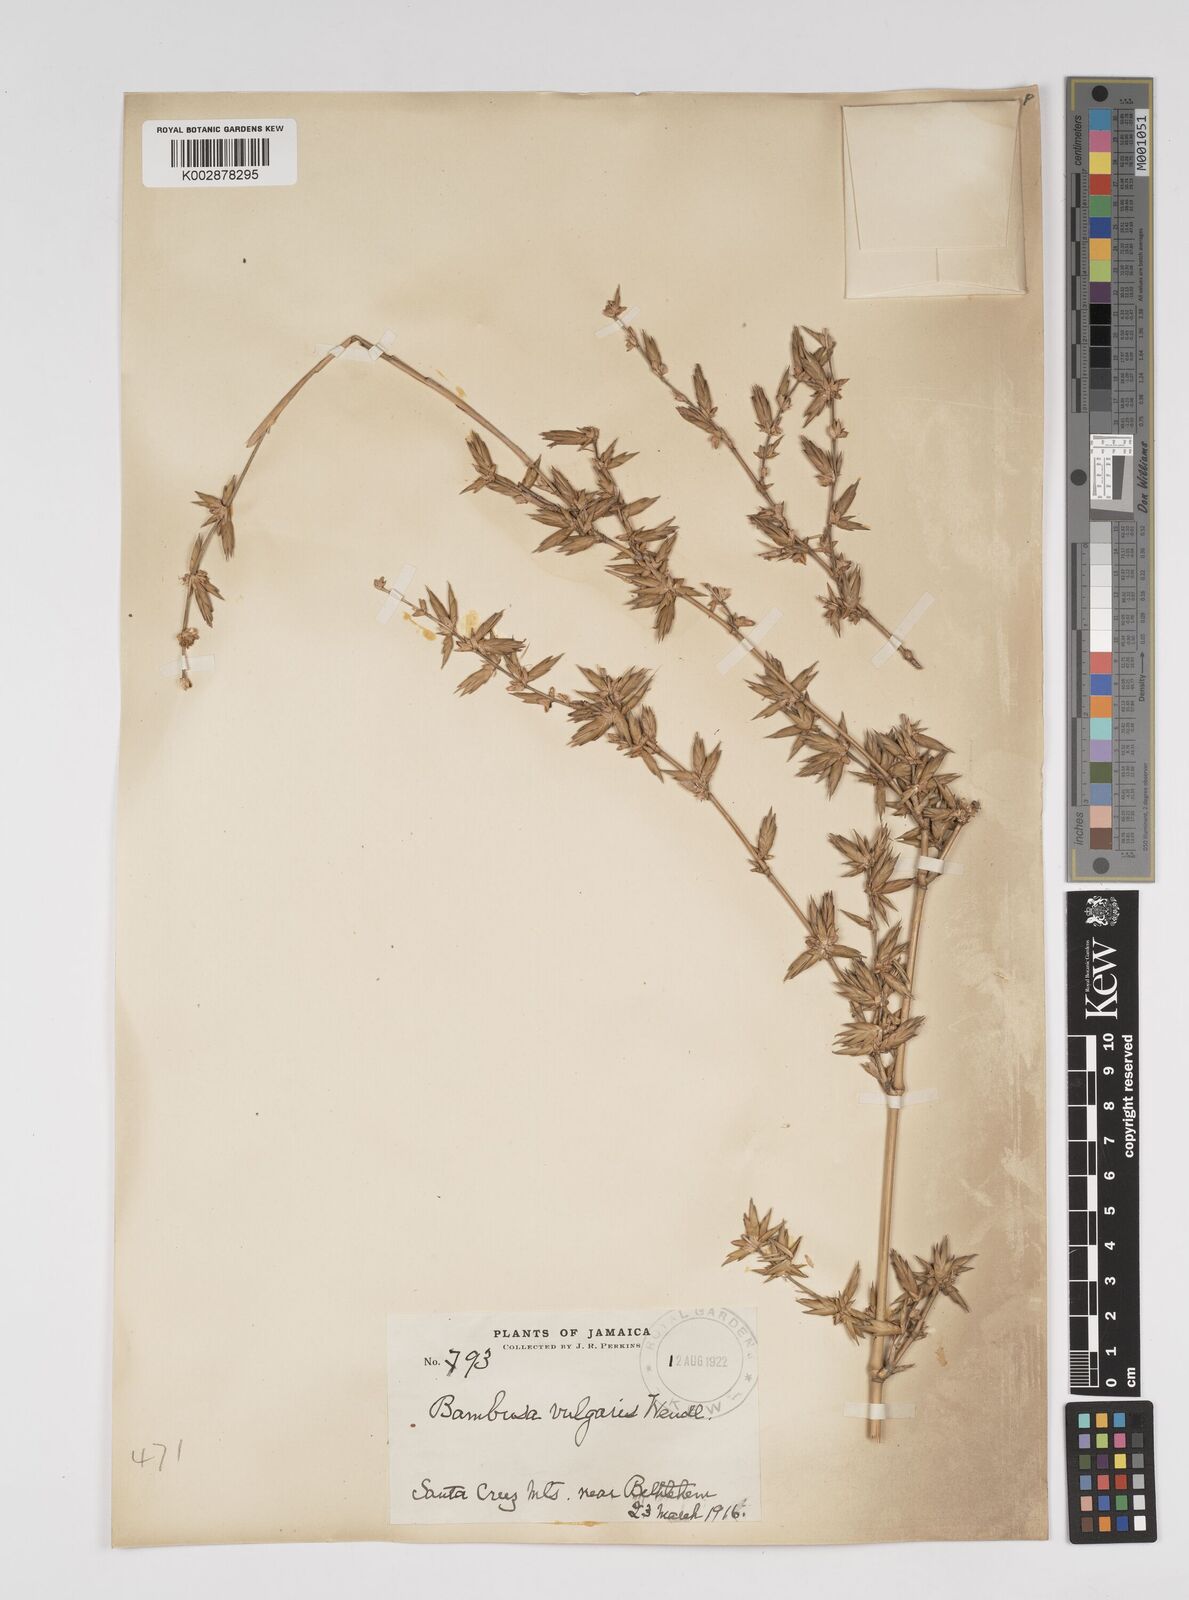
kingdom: Plantae
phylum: Tracheophyta
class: Liliopsida
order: Poales
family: Poaceae
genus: Bambusa
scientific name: Bambusa vulgaris
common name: Common bamboo
